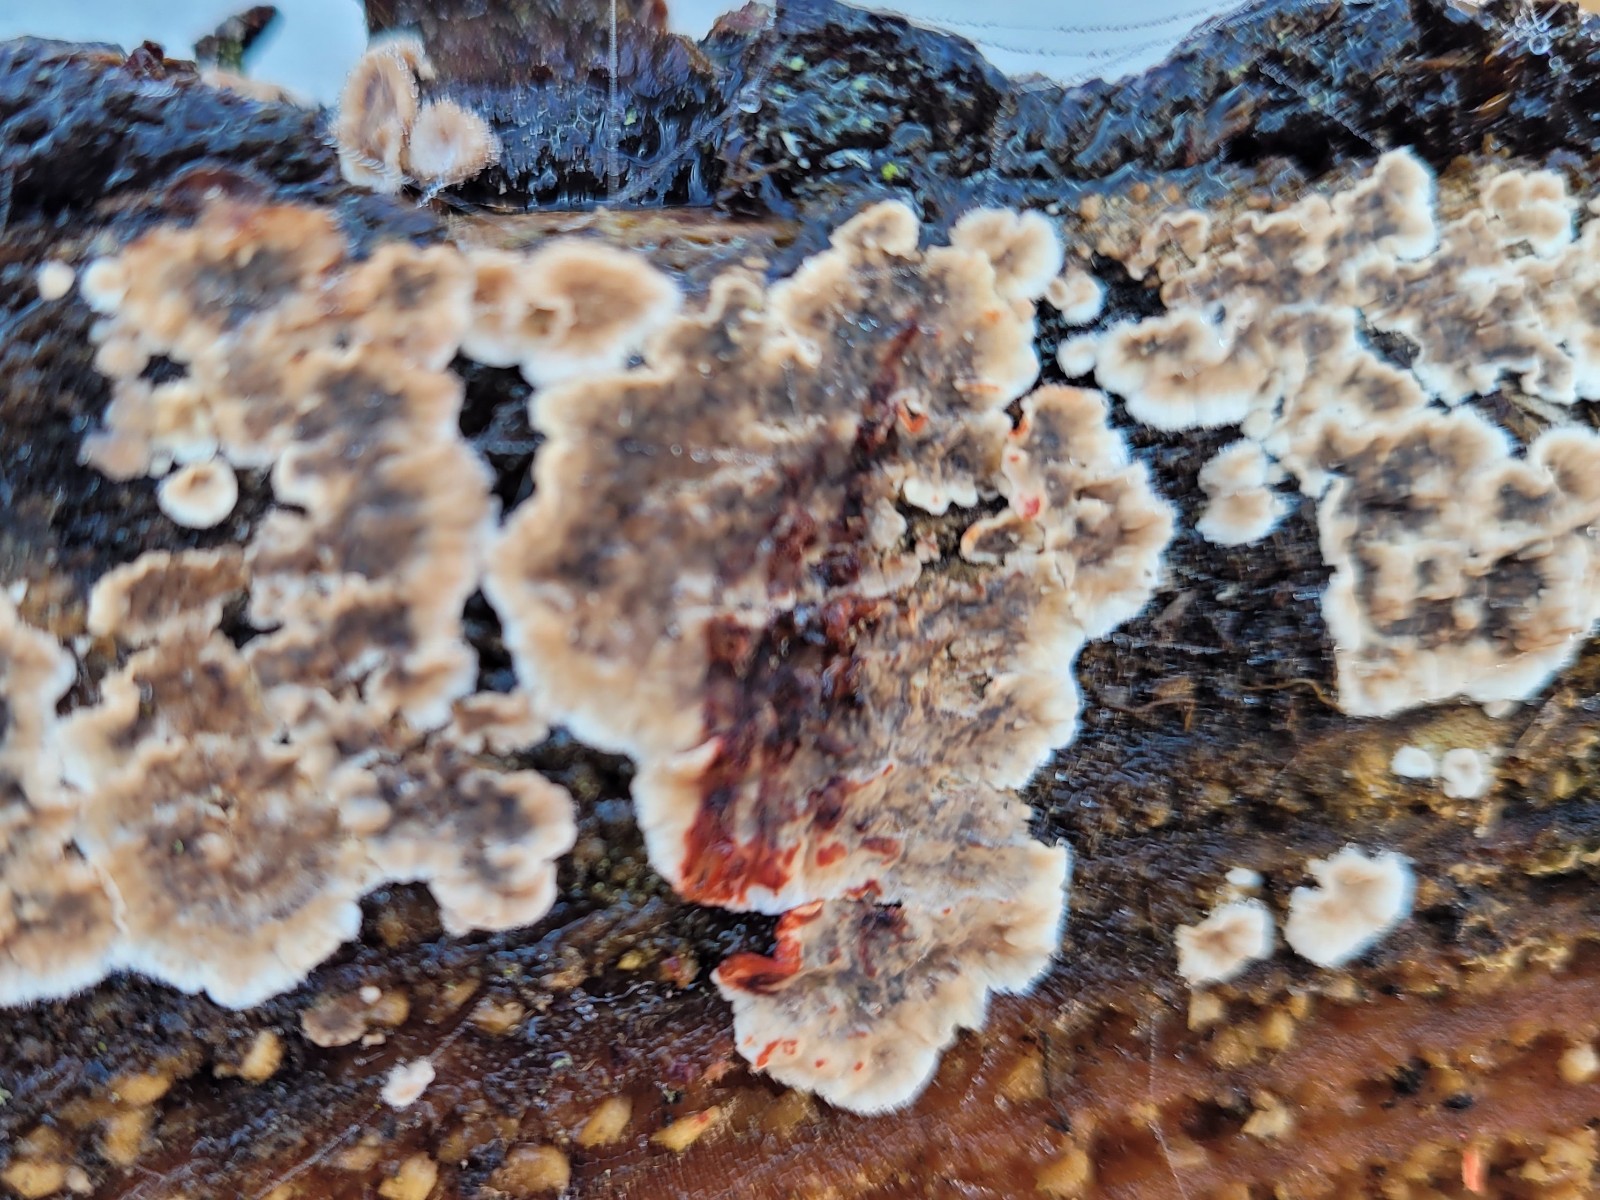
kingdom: Fungi
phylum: Basidiomycota
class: Agaricomycetes
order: Russulales
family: Stereaceae
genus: Stereum
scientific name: Stereum sanguinolentum
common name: blødende lædersvamp
